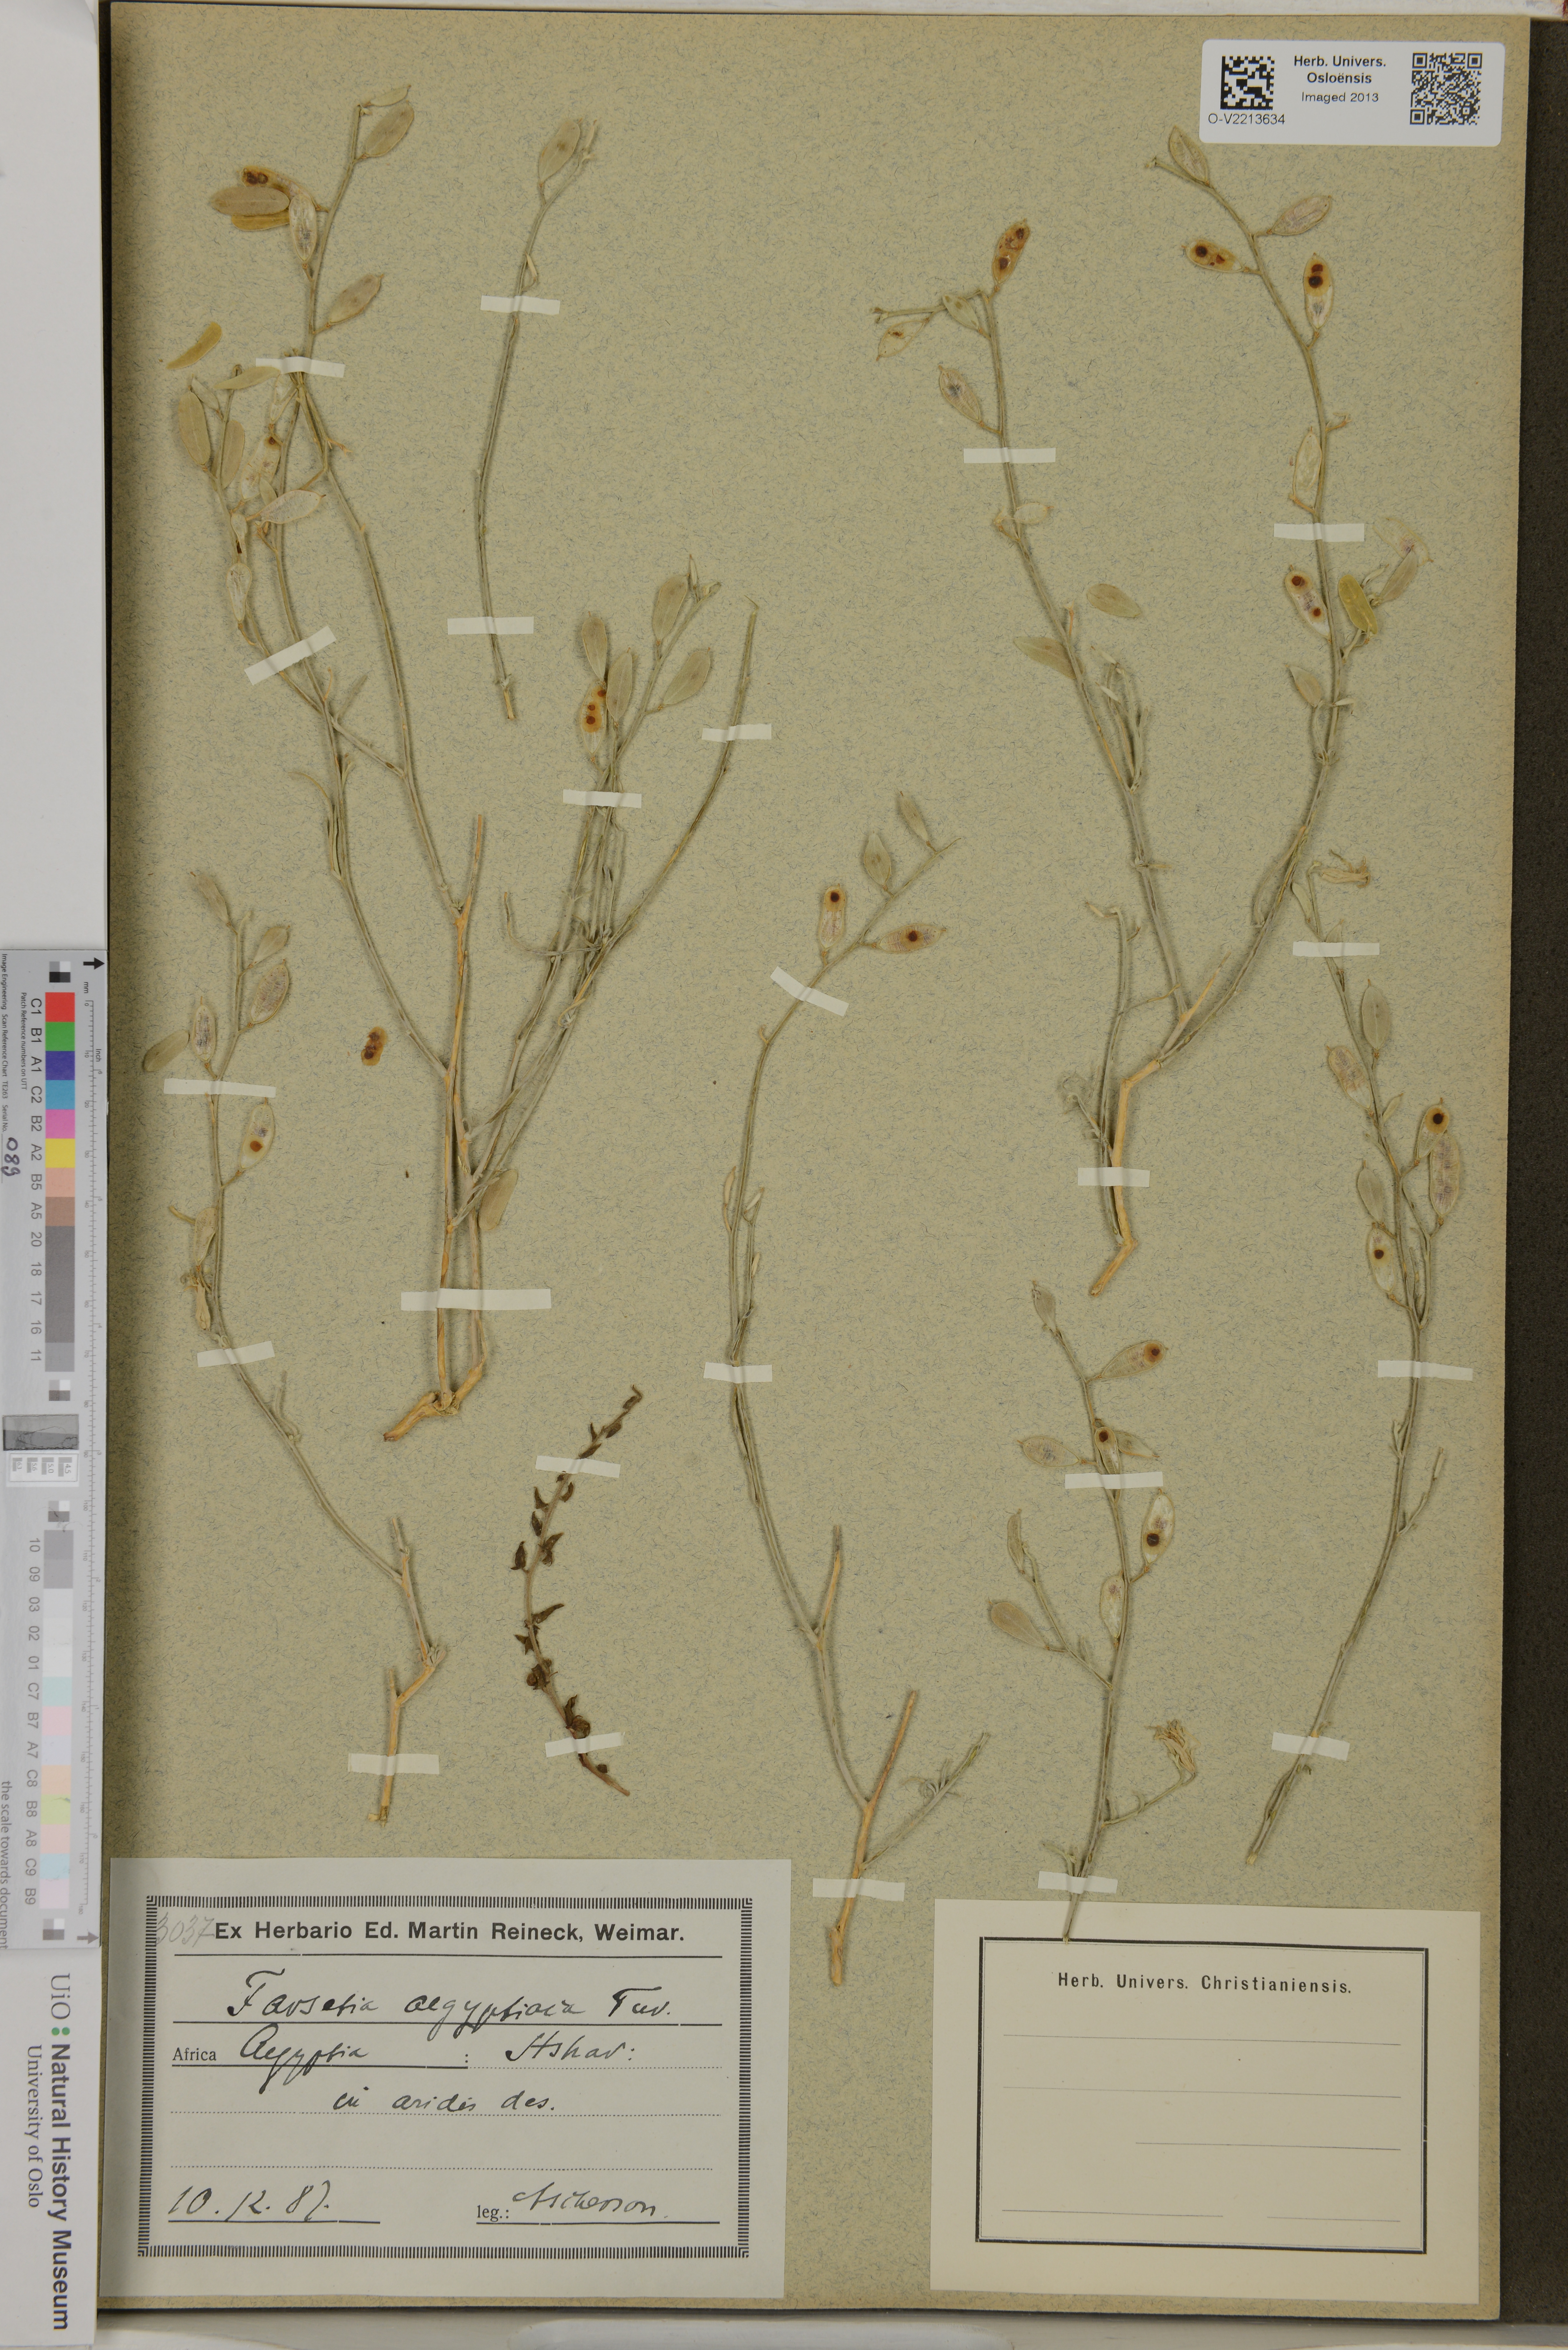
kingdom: Plantae
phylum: Tracheophyta
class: Magnoliopsida
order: Brassicales
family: Brassicaceae
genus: Farsetia
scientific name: Farsetia aegyptiaca
